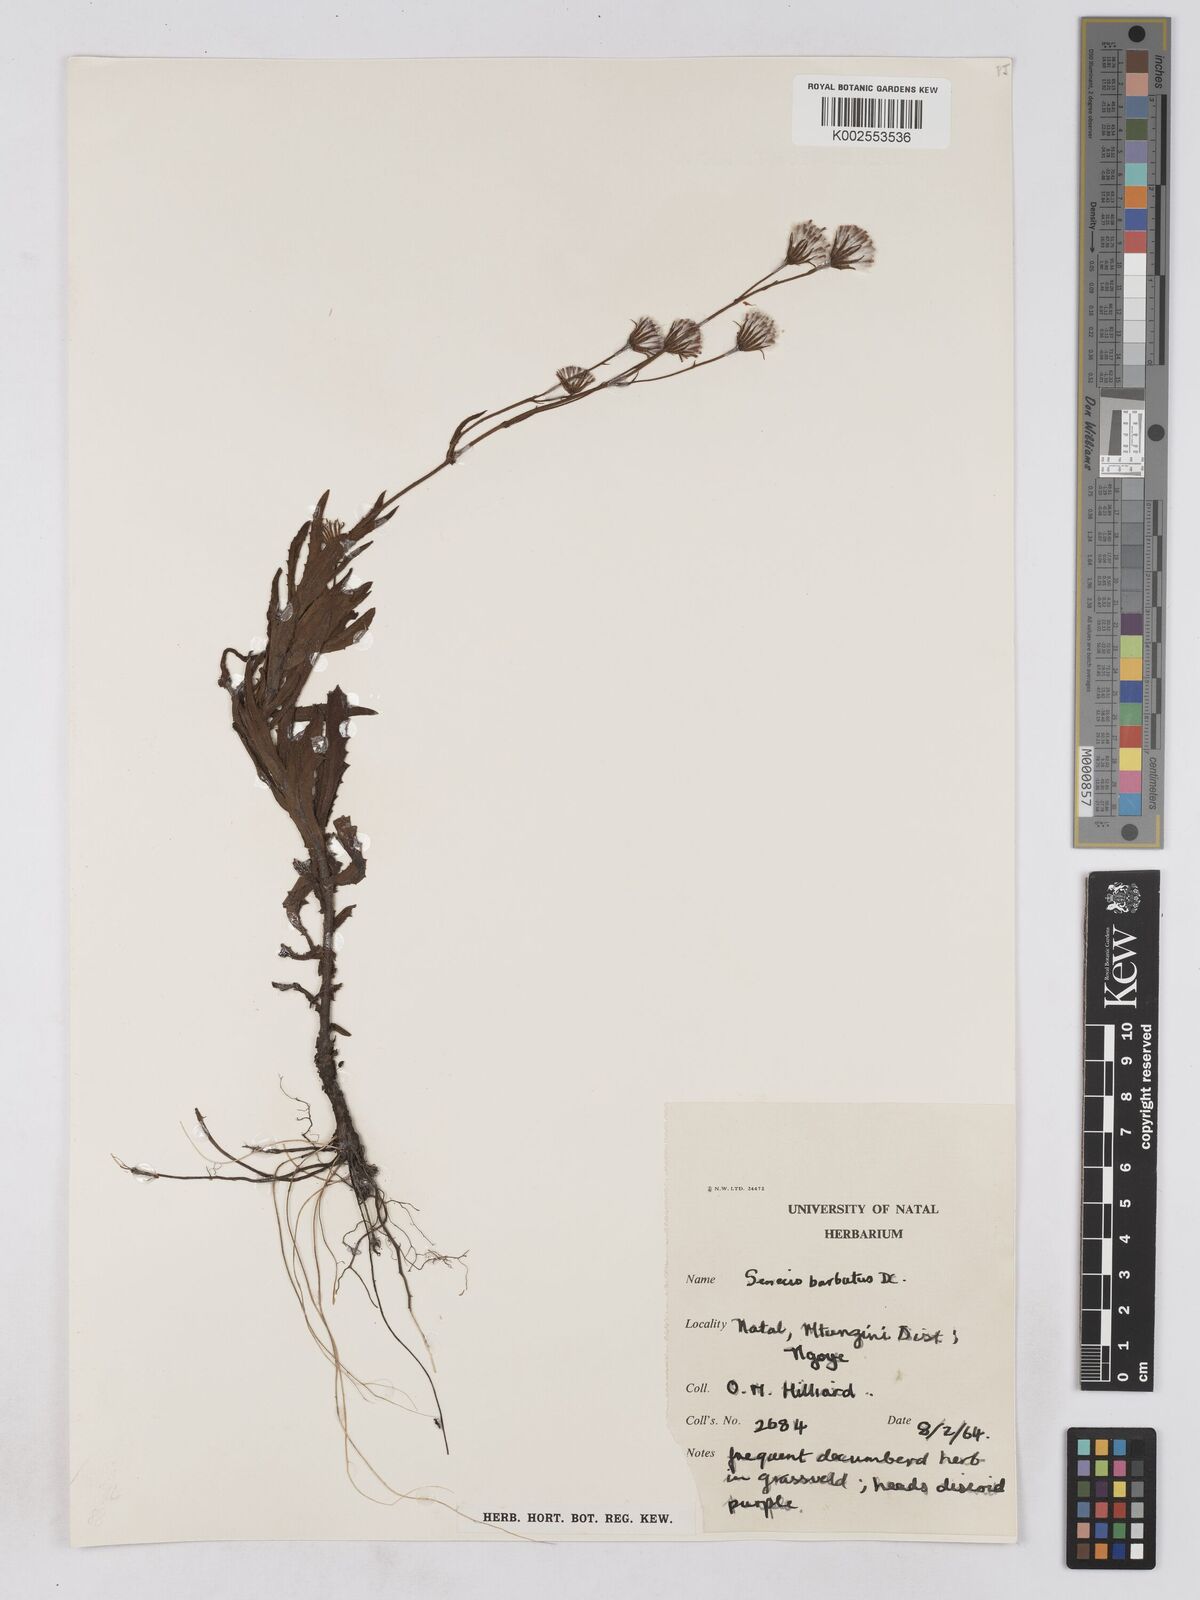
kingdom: Plantae
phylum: Tracheophyta
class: Magnoliopsida
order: Asterales
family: Asteraceae
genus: Senecio
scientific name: Senecio sandersonii
